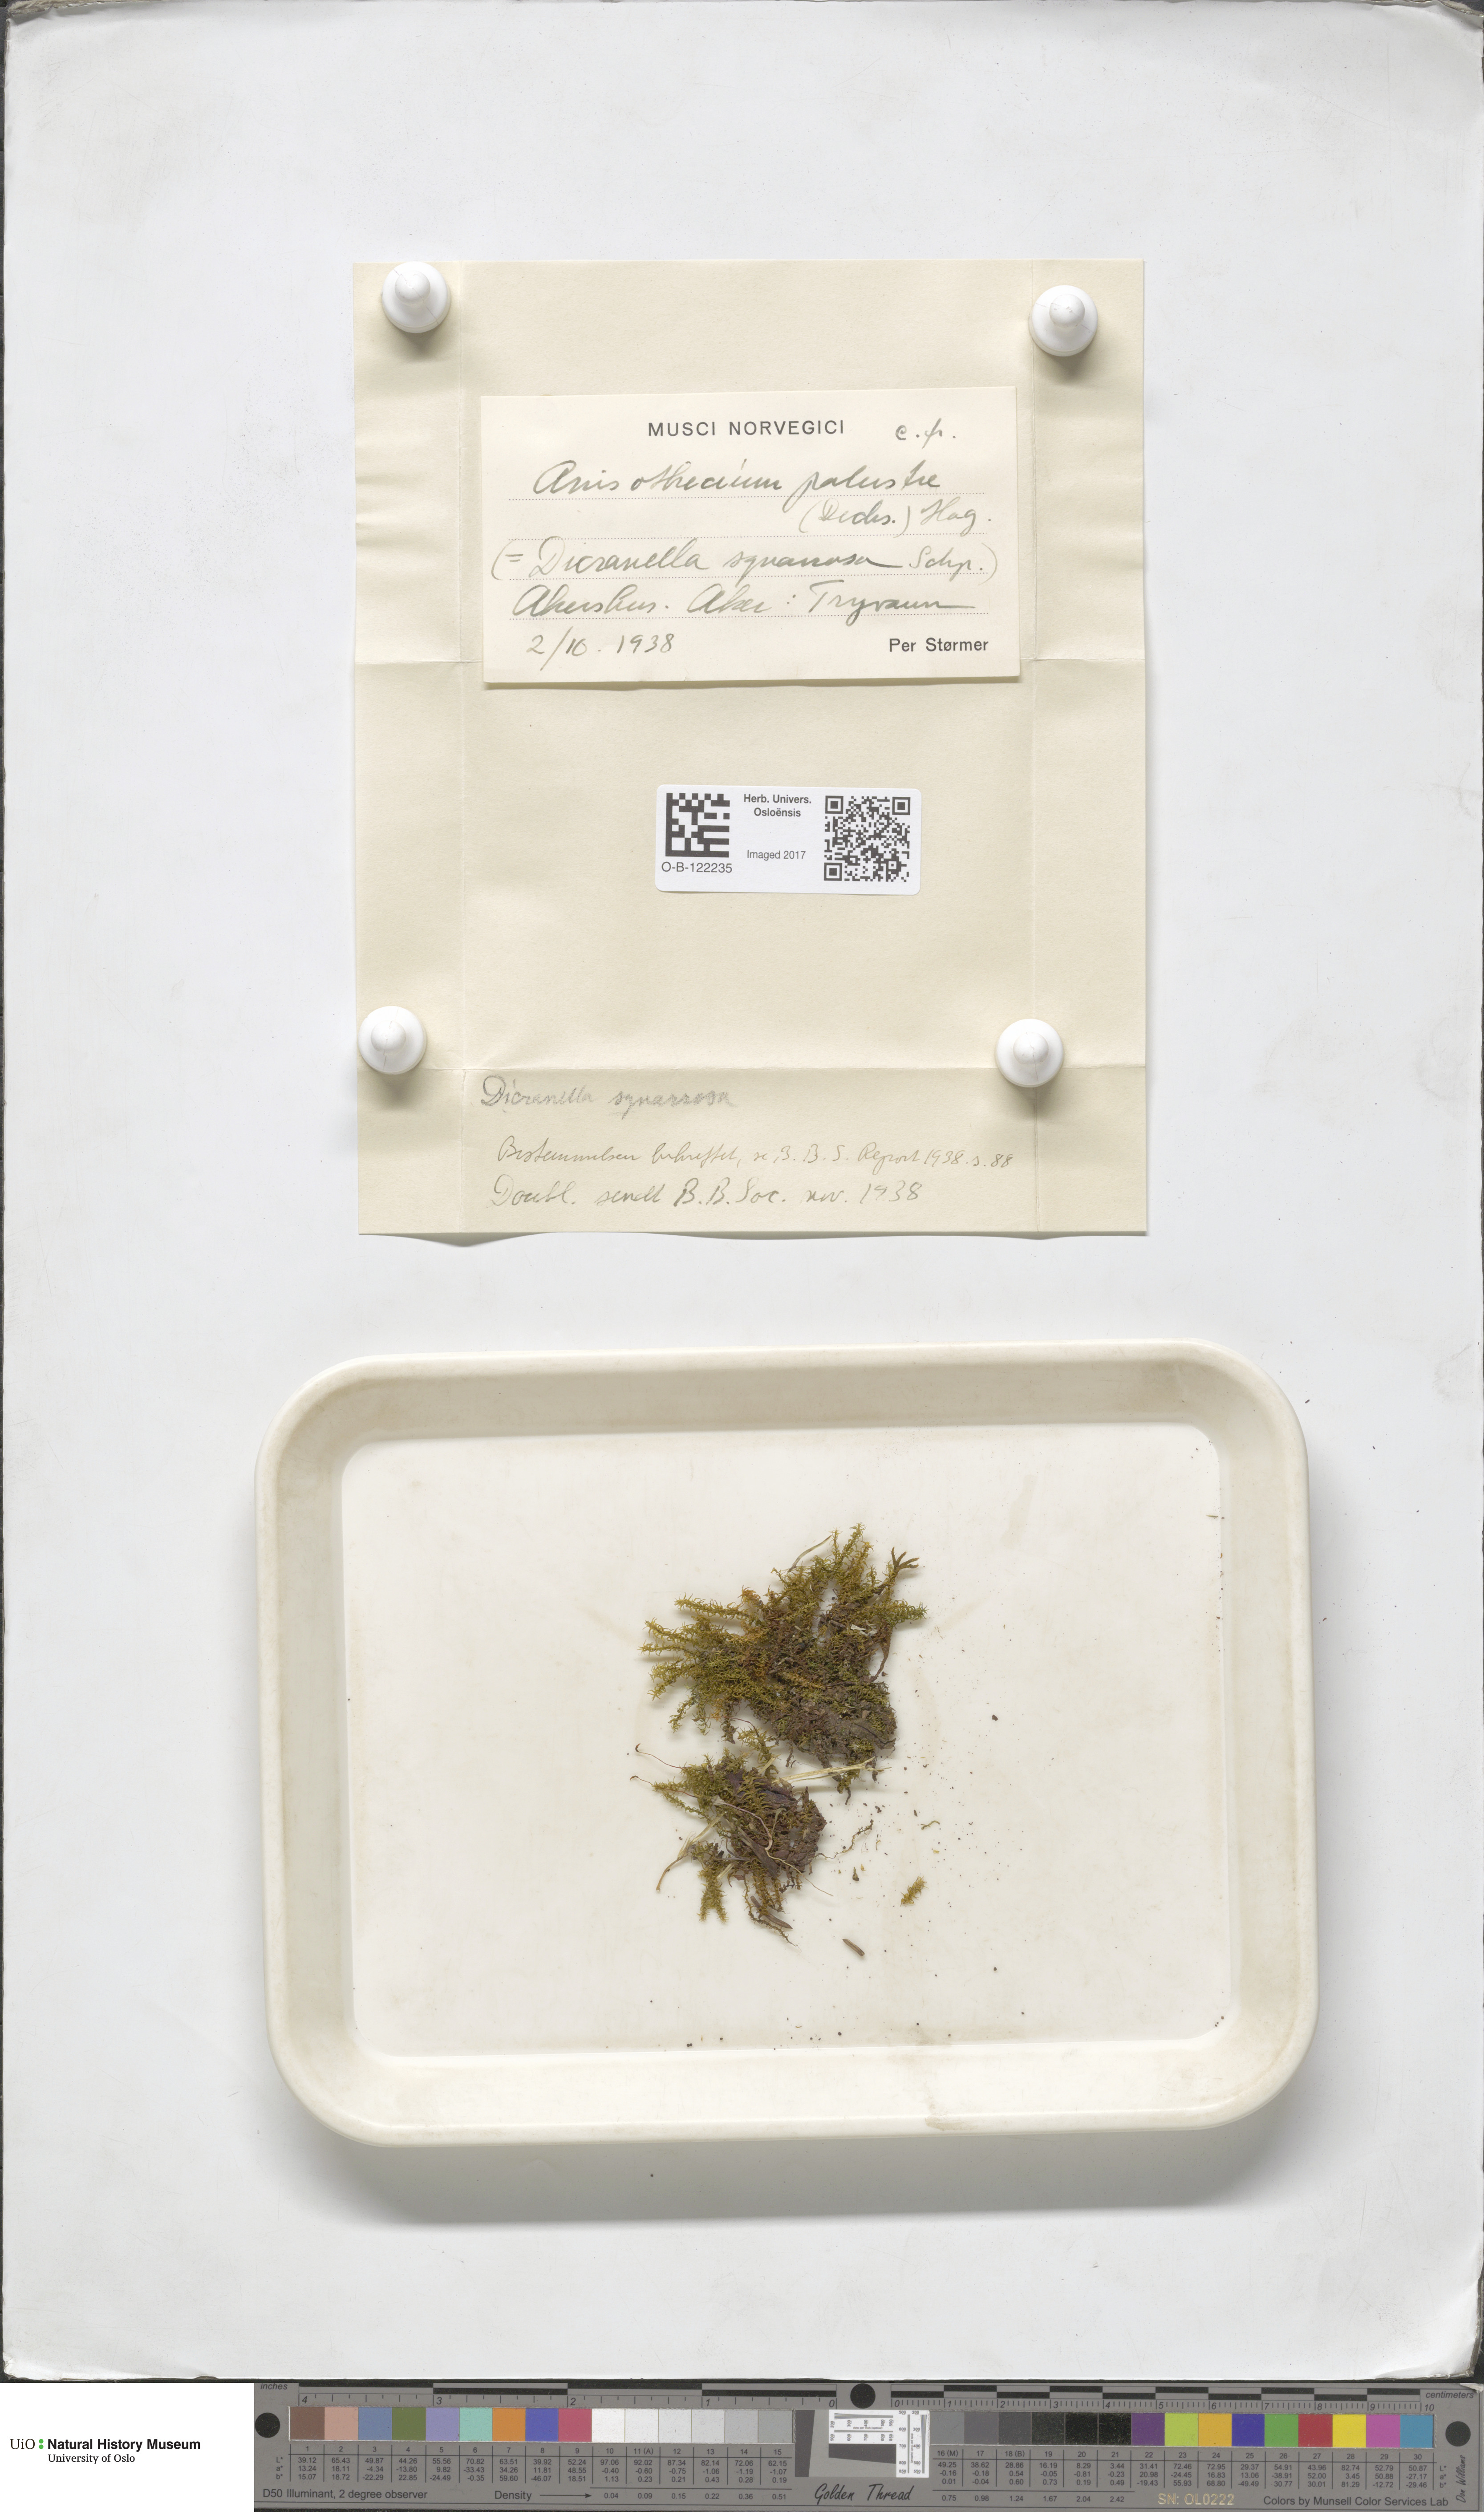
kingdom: Plantae
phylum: Bryophyta
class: Bryopsida
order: Dicranales
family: Aongstroemiaceae
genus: Diobelonella
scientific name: Diobelonella palustris
